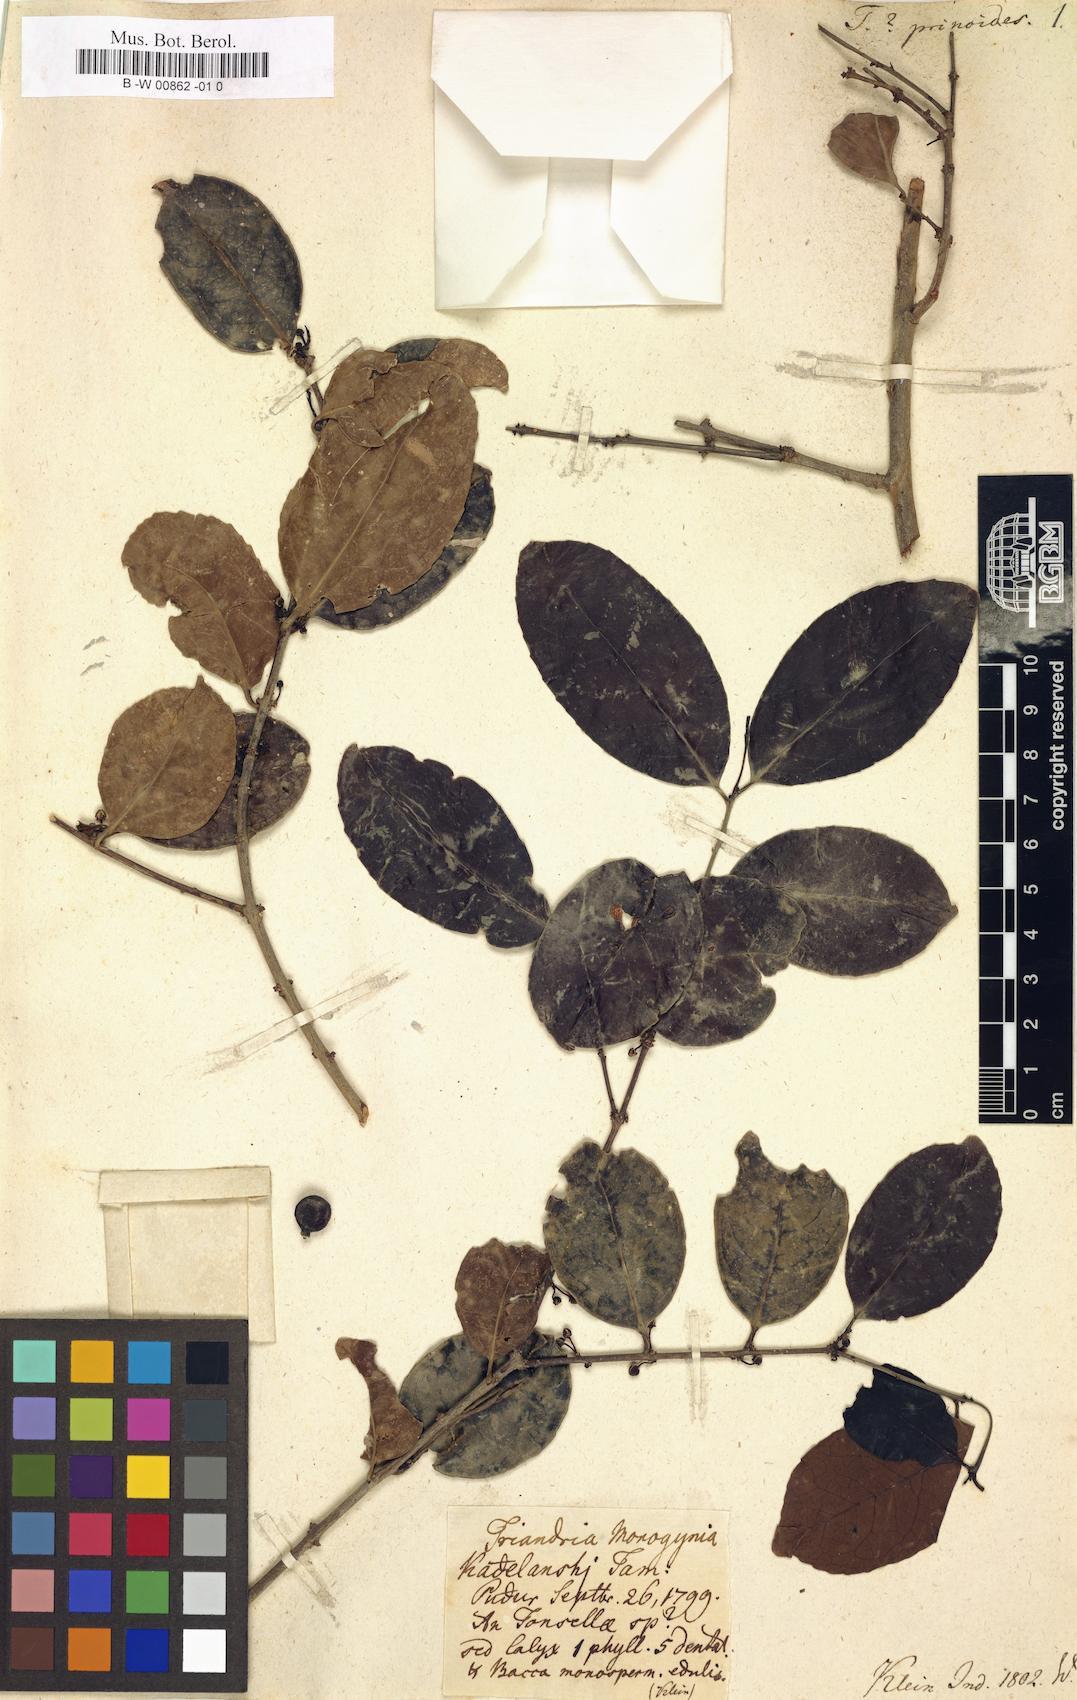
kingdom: Plantae
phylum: Tracheophyta
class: Magnoliopsida
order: Celastrales
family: Celastraceae
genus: Salacia
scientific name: Salacia chinensis
